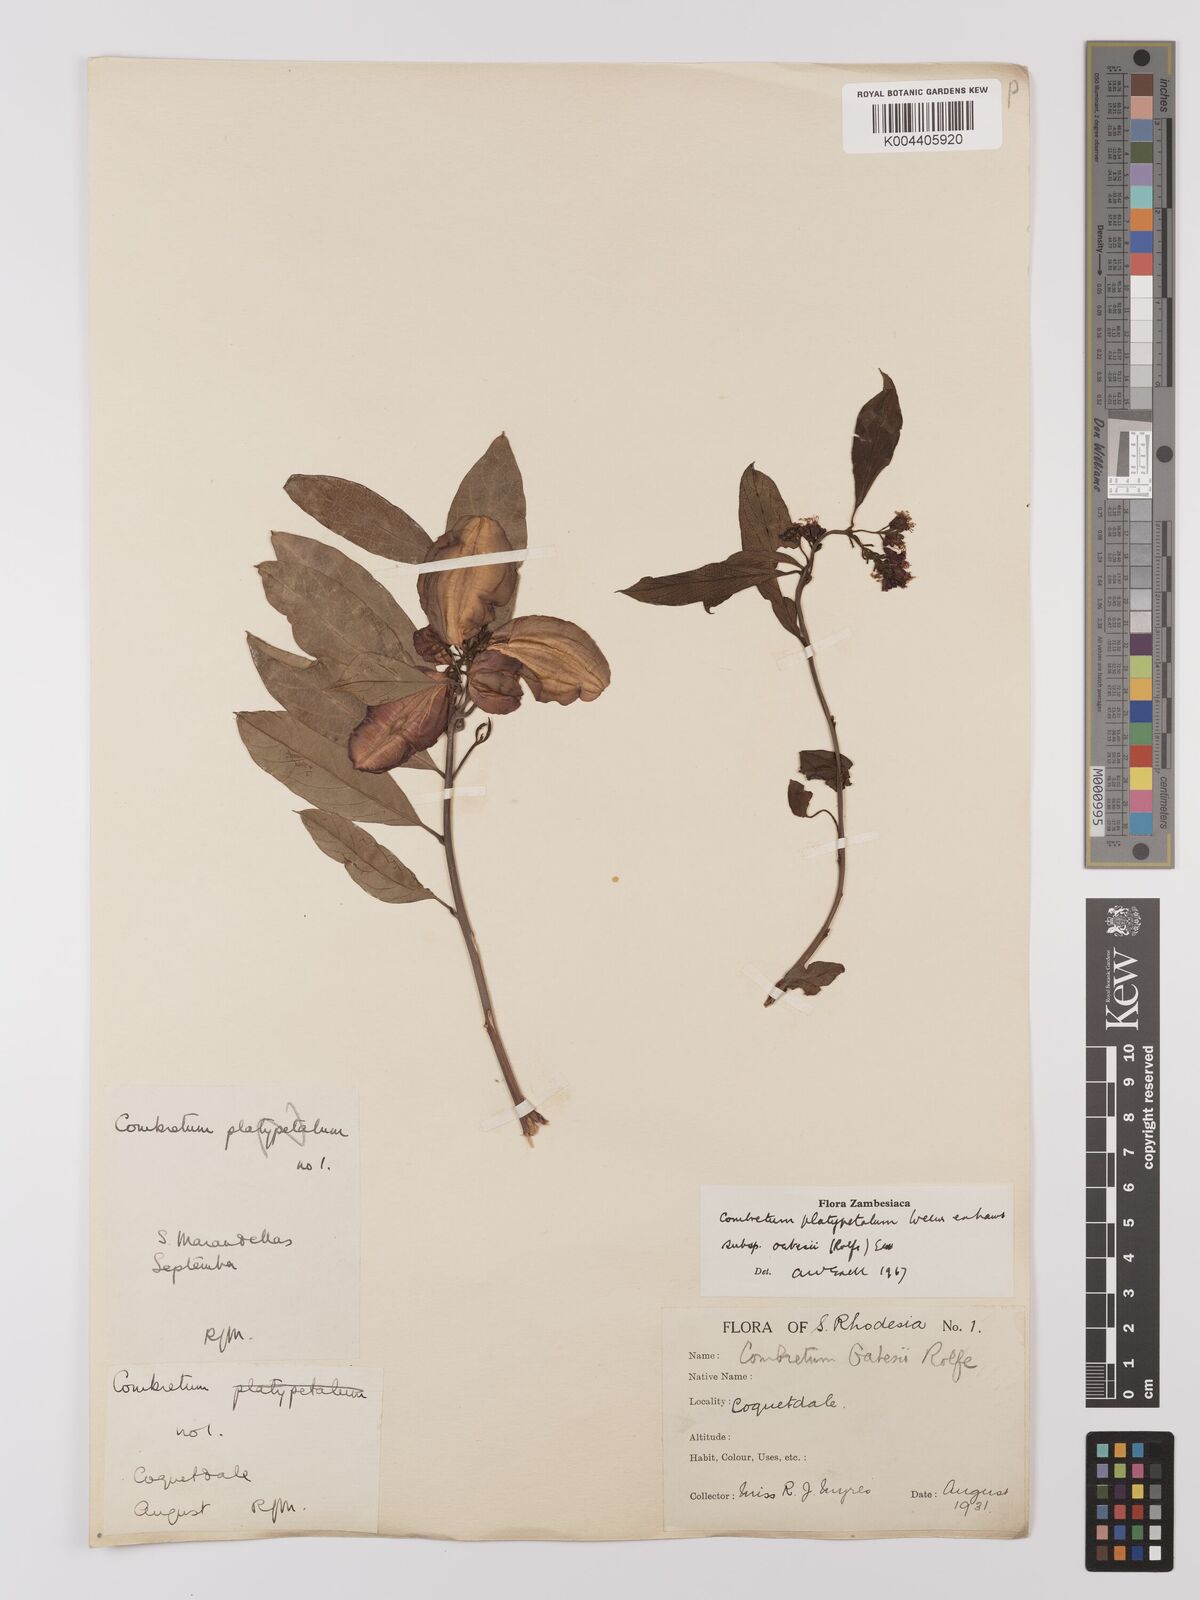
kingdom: Plantae
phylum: Tracheophyta
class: Magnoliopsida
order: Myrtales
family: Combretaceae
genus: Combretum
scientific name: Combretum platypetalum
